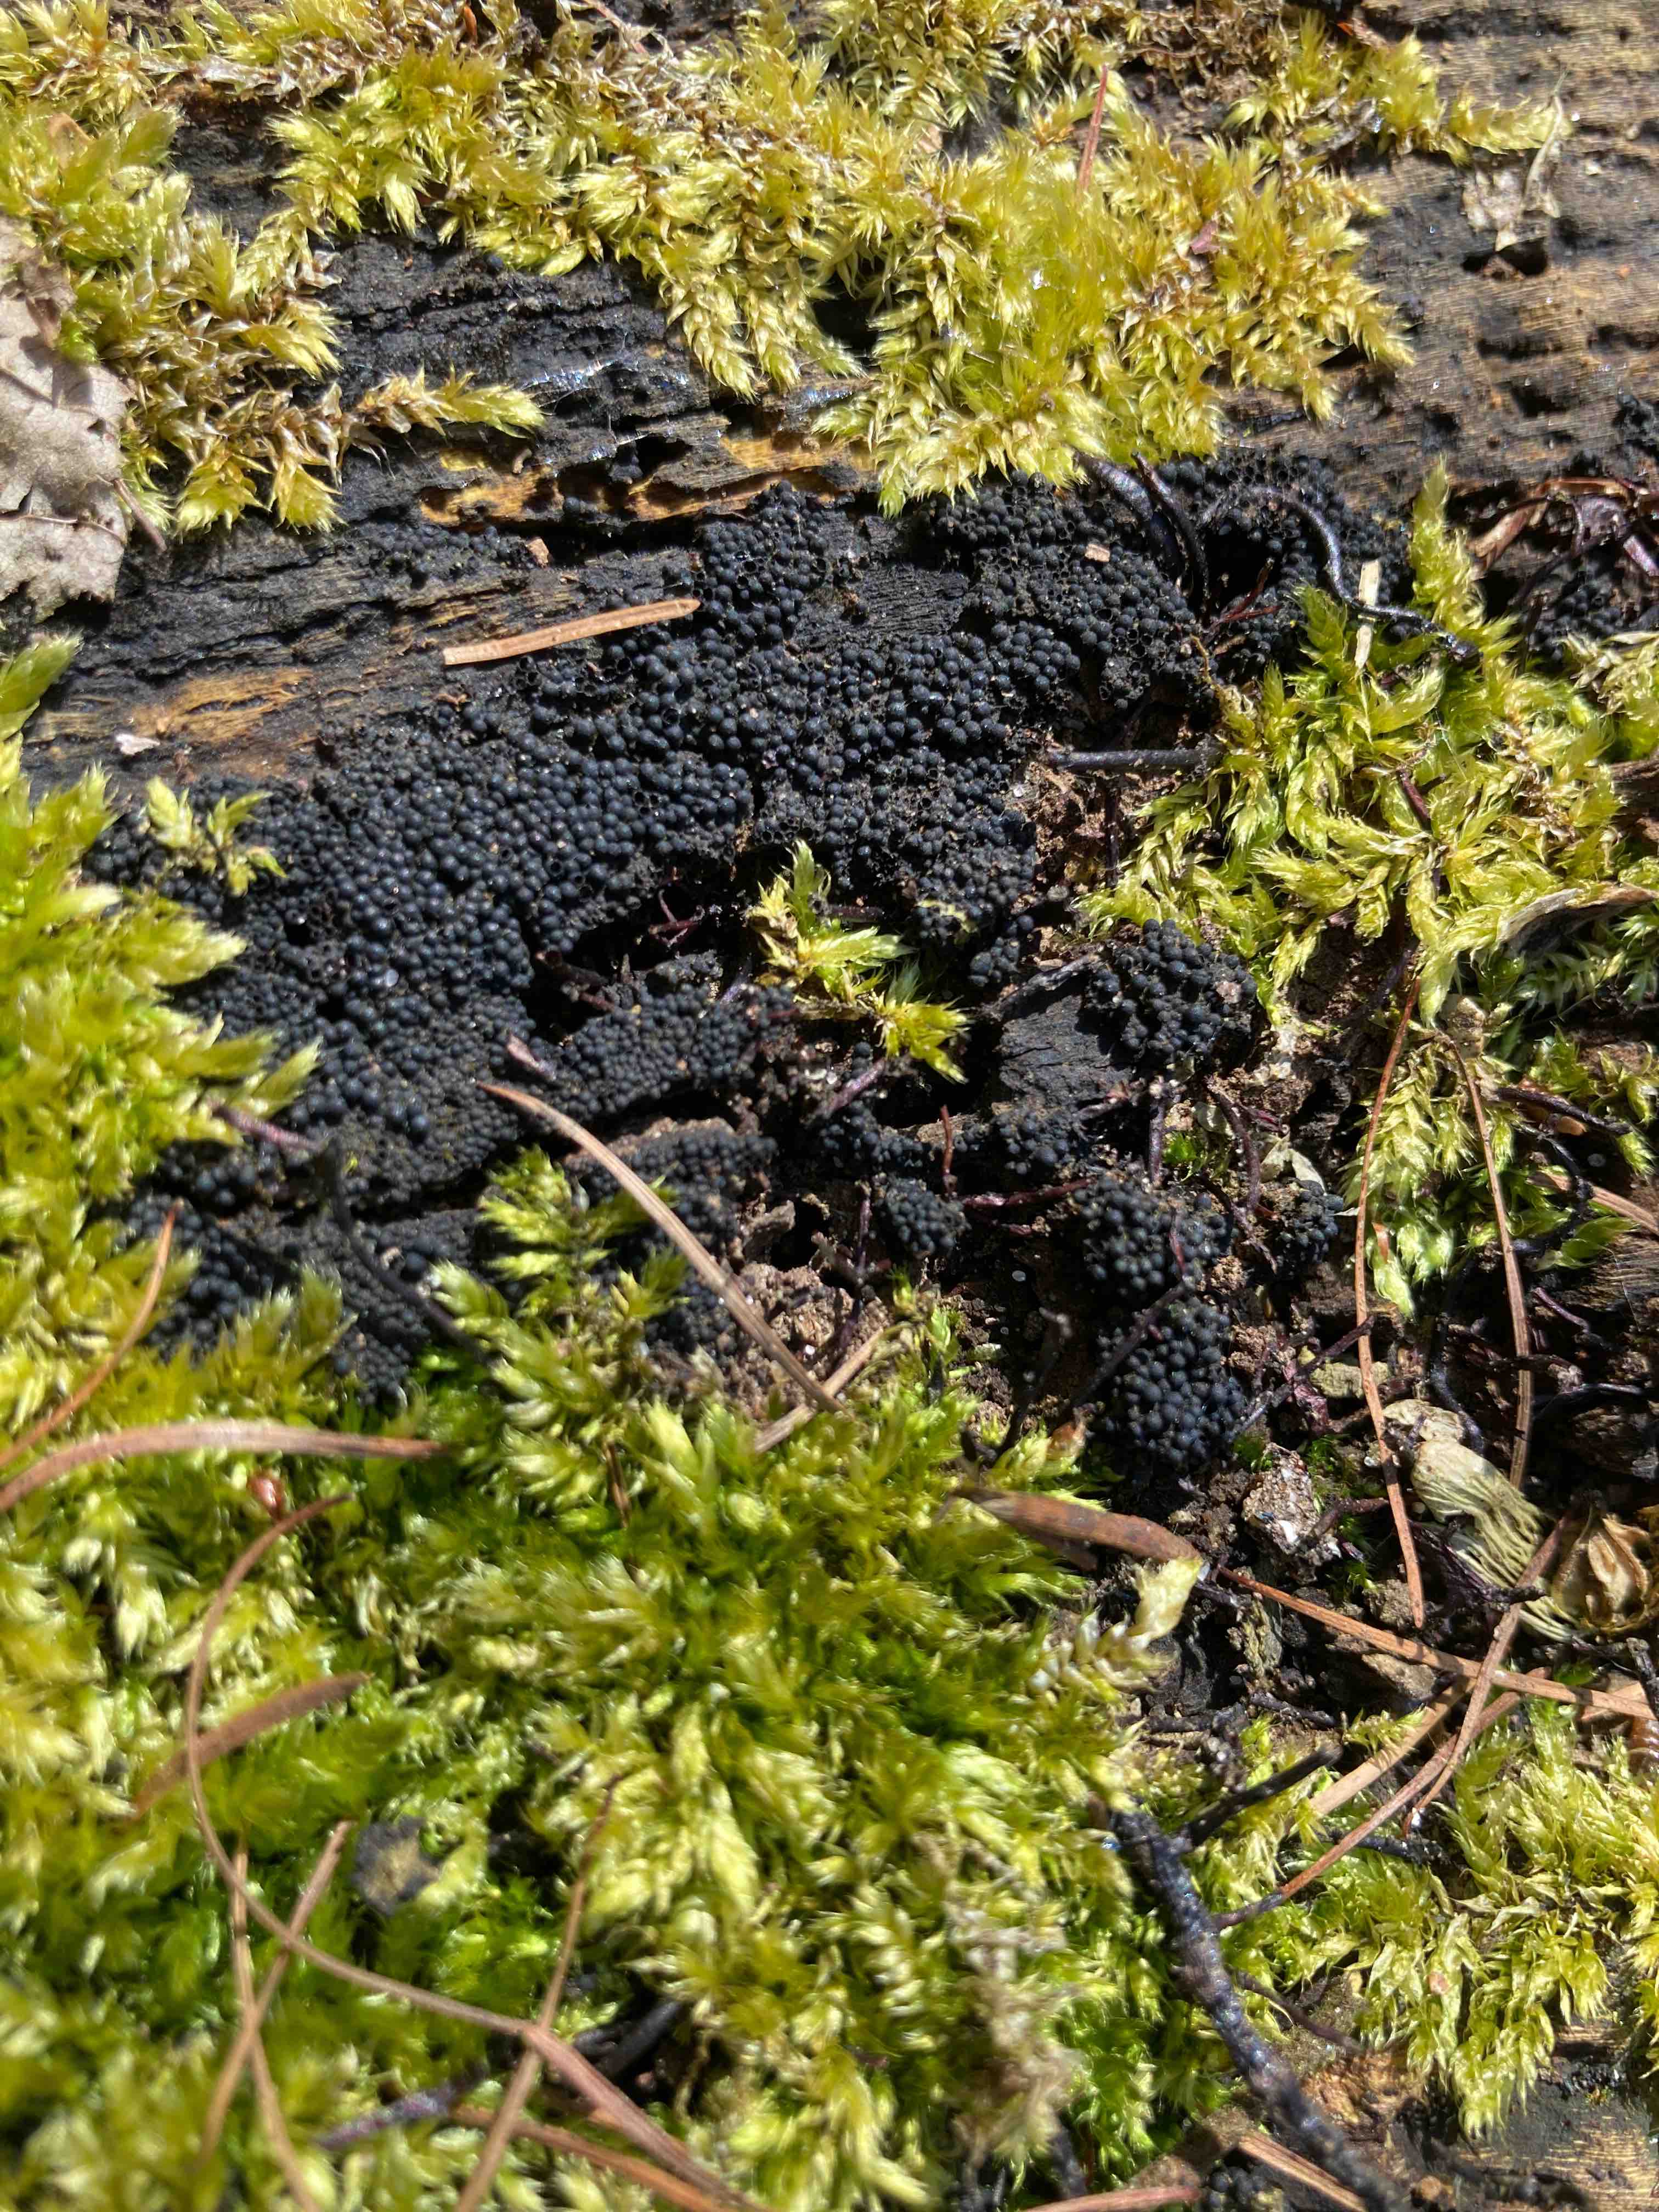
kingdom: Fungi
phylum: Ascomycota
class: Sordariomycetes
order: Sordariales
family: Helminthosphaeriaceae
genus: Ruzenia
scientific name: Ruzenia spermoides
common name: glat børstekerne
